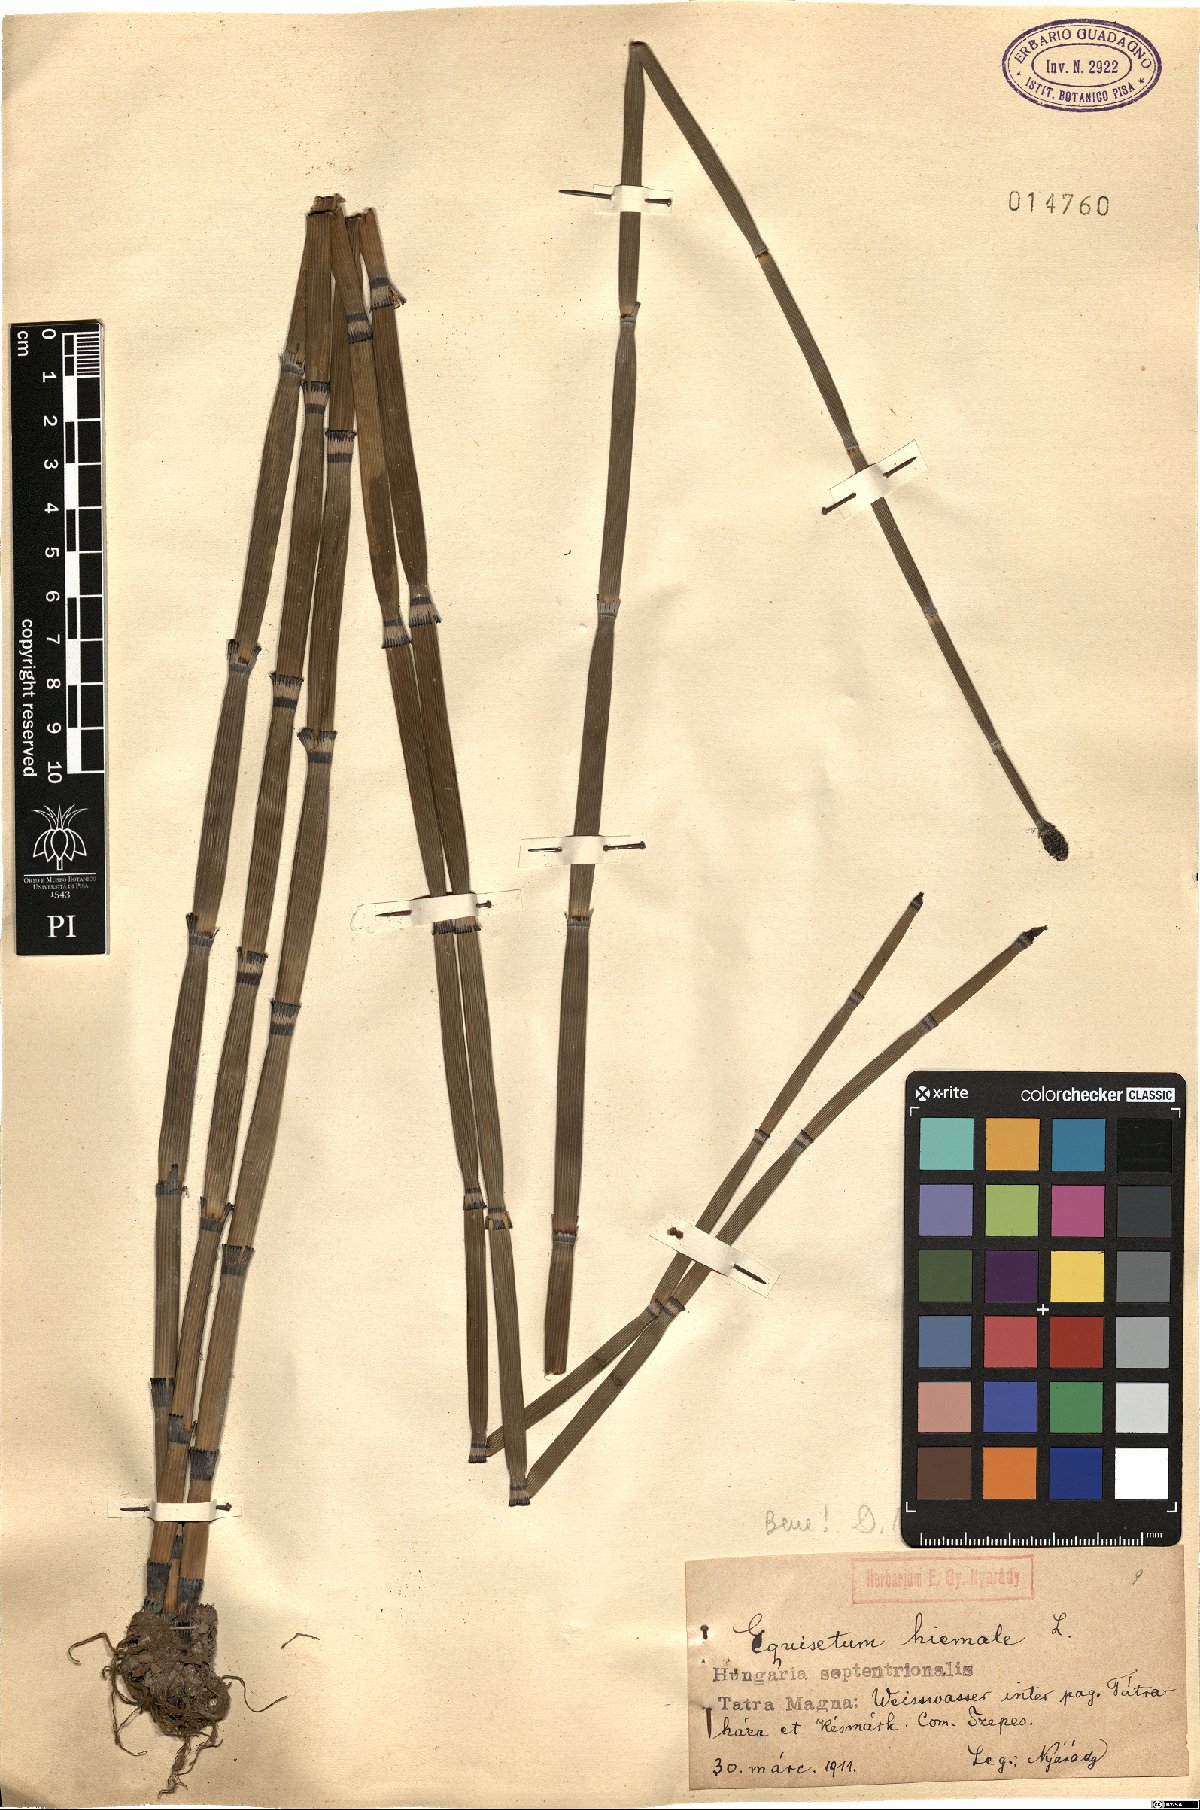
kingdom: Plantae
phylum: Tracheophyta
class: Polypodiopsida
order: Equisetales
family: Equisetaceae
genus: Equisetum
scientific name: Equisetum hyemale
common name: Rough horsetail
